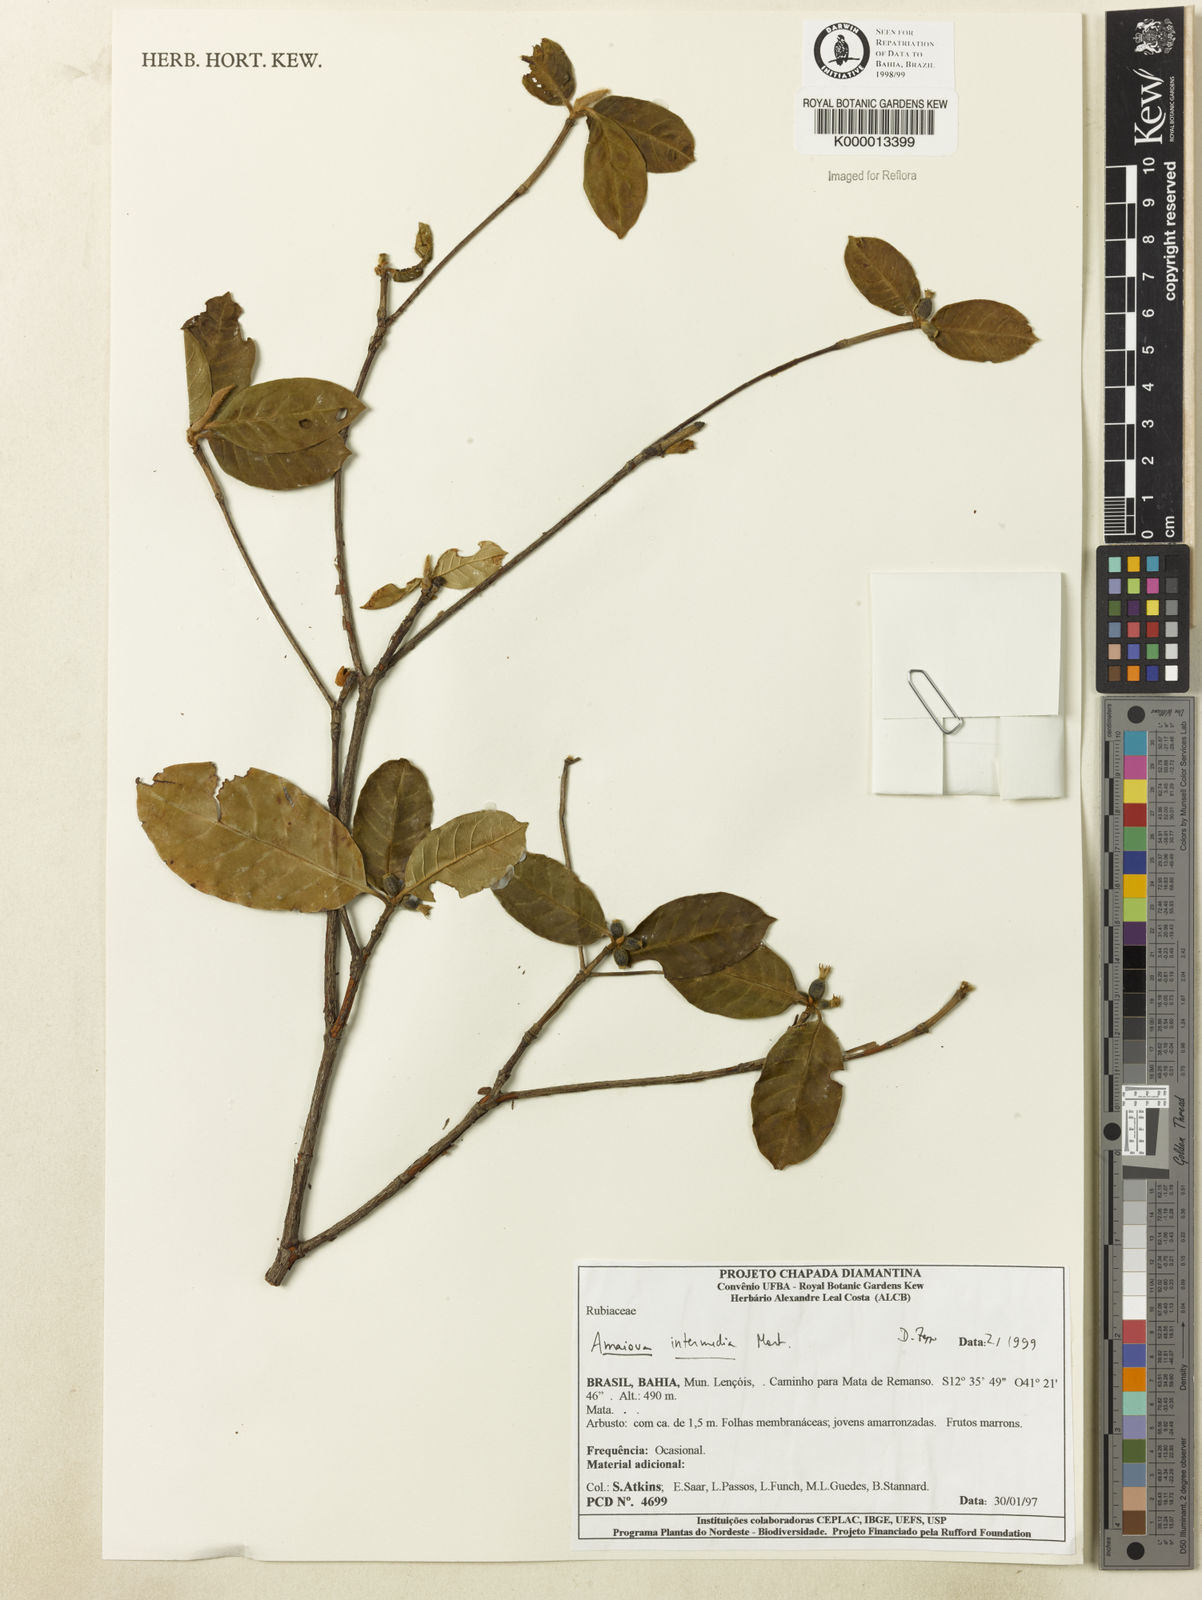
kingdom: Plantae
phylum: Tracheophyta
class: Magnoliopsida
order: Gentianales
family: Rubiaceae
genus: Amaioua
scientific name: Amaioua
